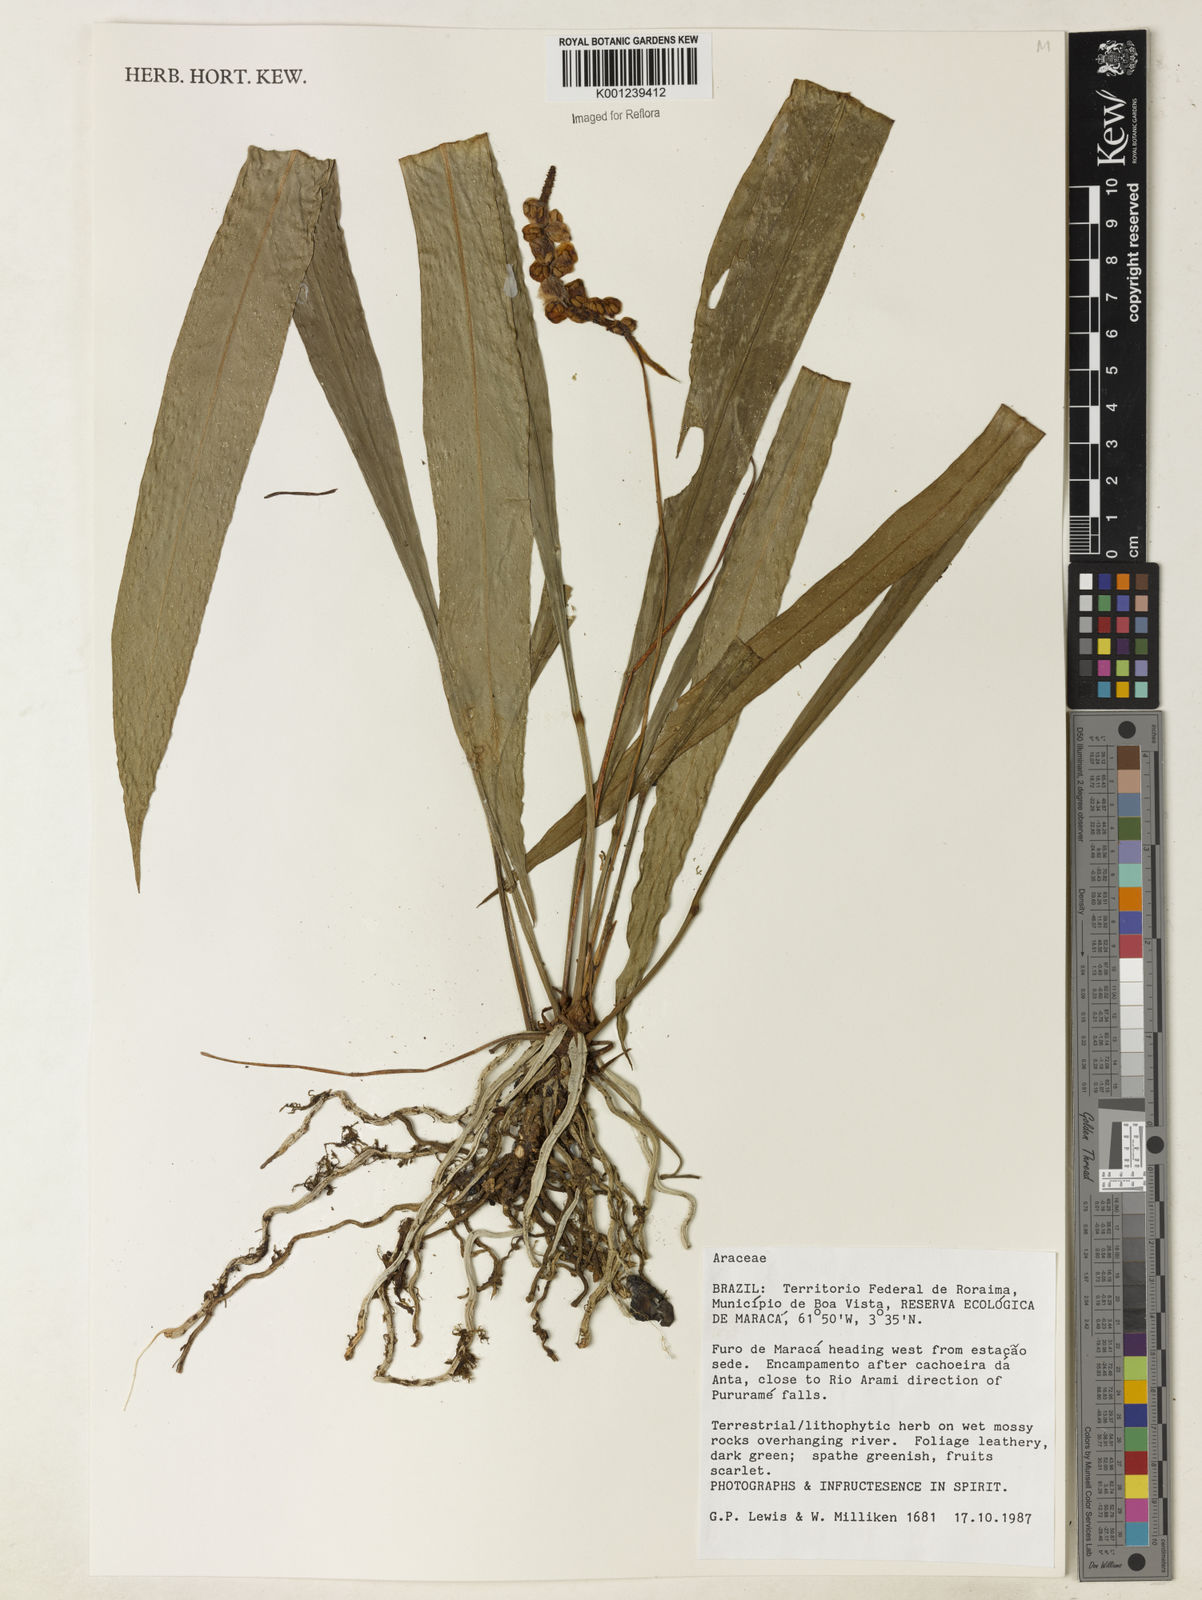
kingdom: Plantae
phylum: Tracheophyta
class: Liliopsida
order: Alismatales
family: Araceae
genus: Anthurium
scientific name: Anthurium gracile
